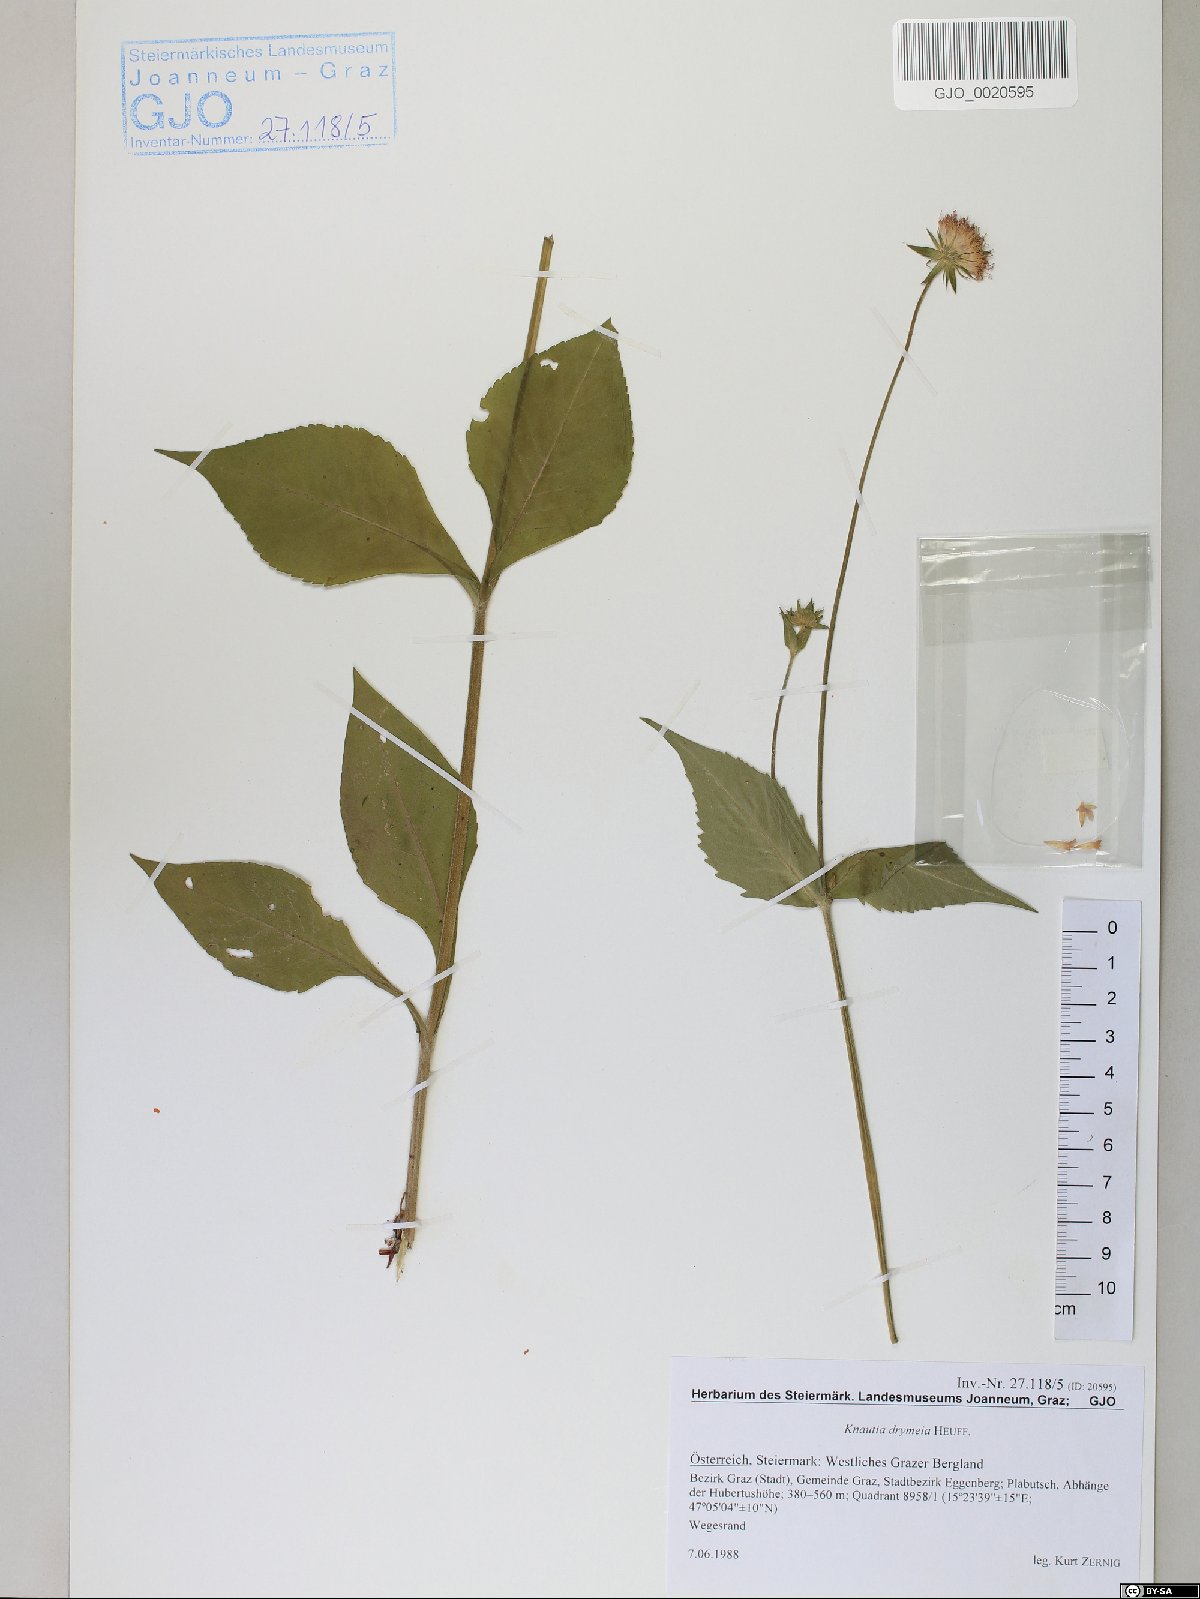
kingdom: Plantae
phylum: Tracheophyta
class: Magnoliopsida
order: Dipsacales
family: Caprifoliaceae
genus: Knautia
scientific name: Knautia drymeia
